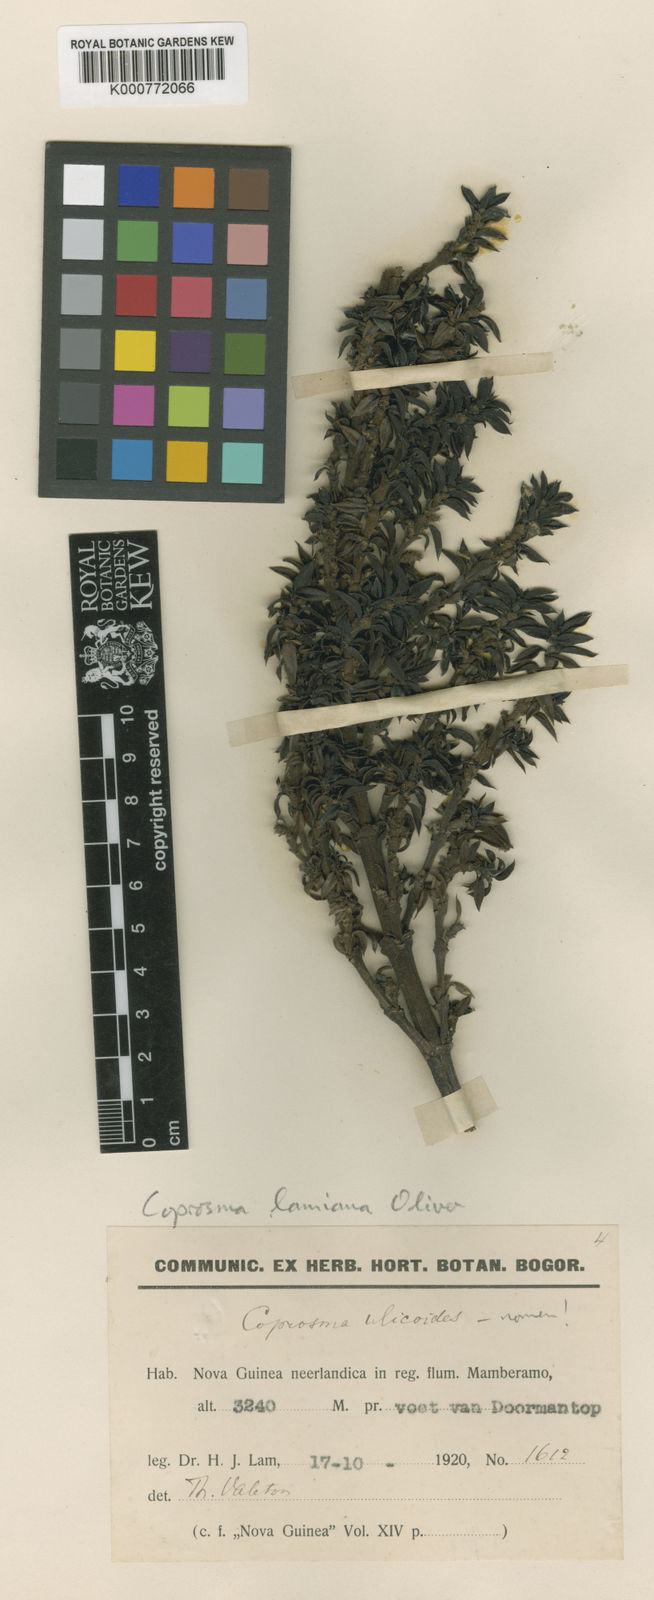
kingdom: Plantae
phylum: Tracheophyta
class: Magnoliopsida
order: Gentianales
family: Rubiaceae
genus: Coprosma
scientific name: Coprosma wollastonii
